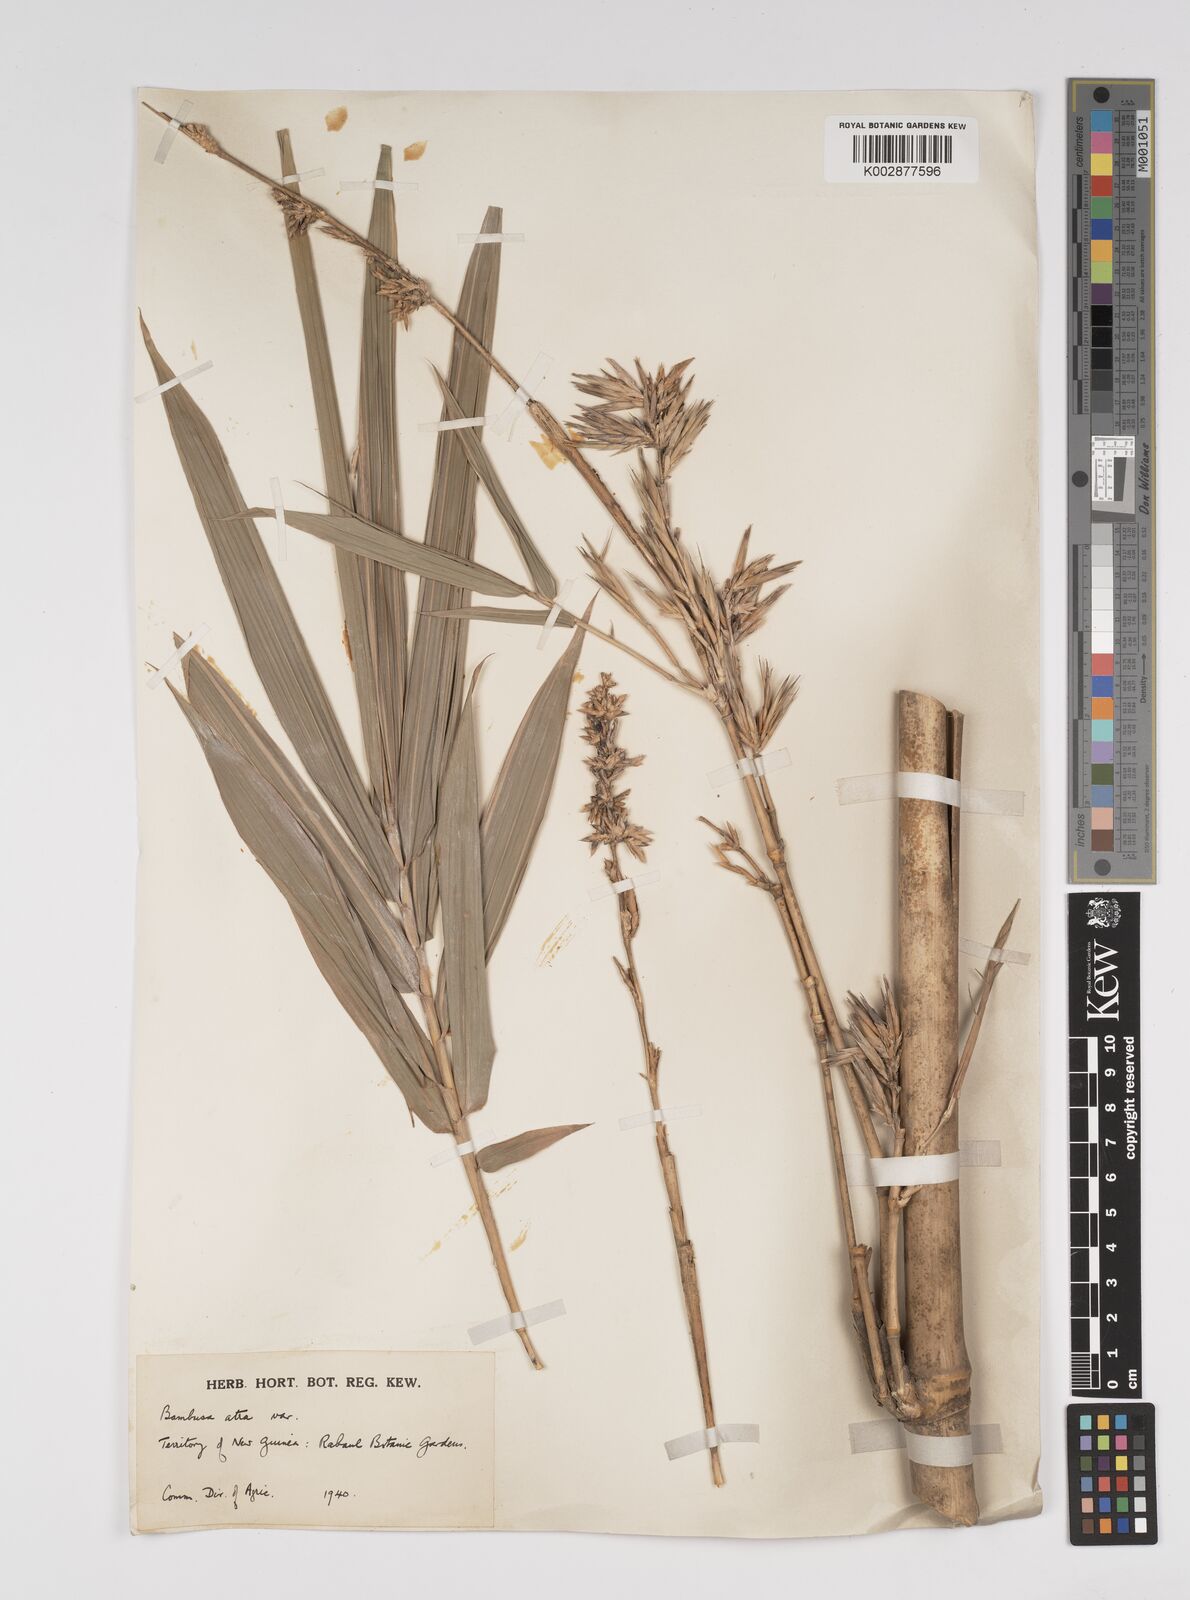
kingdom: Plantae
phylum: Tracheophyta
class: Liliopsida
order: Poales
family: Poaceae
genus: Bambusa
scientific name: Bambusa macrolemma
